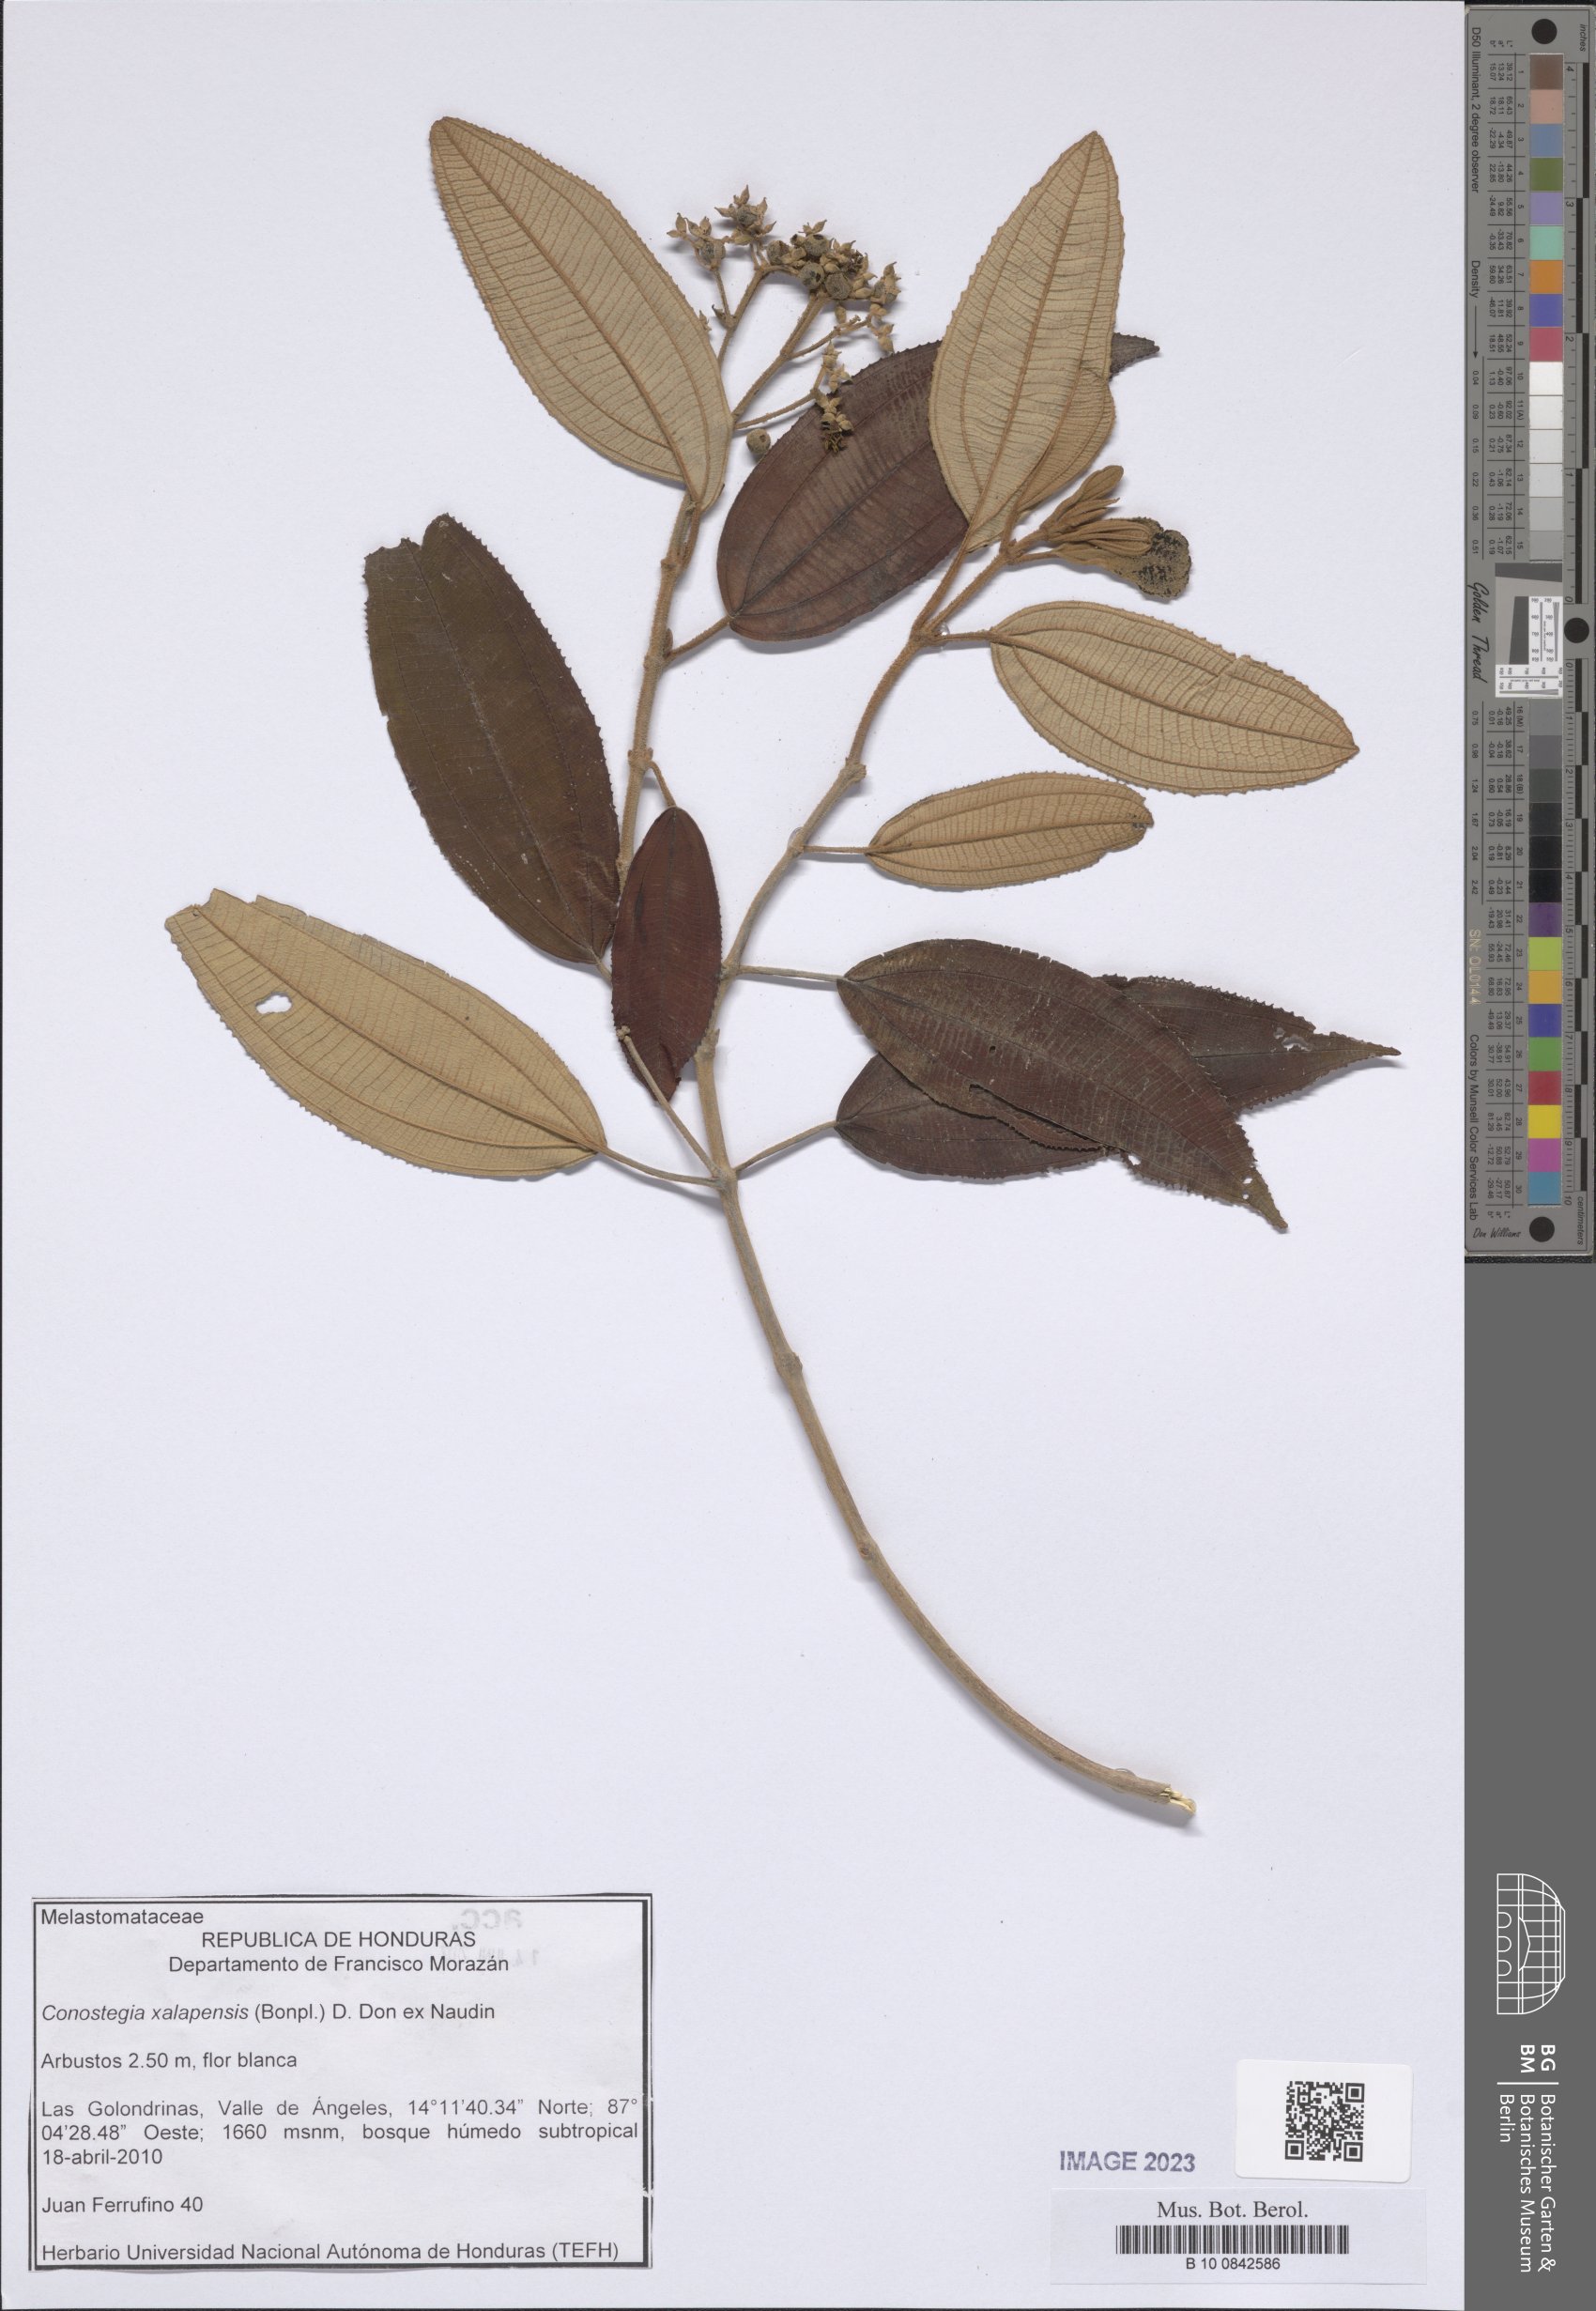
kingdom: Plantae
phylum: Tracheophyta
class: Magnoliopsida
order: Myrtales
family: Melastomataceae
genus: Miconia
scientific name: Miconia xalapensis
